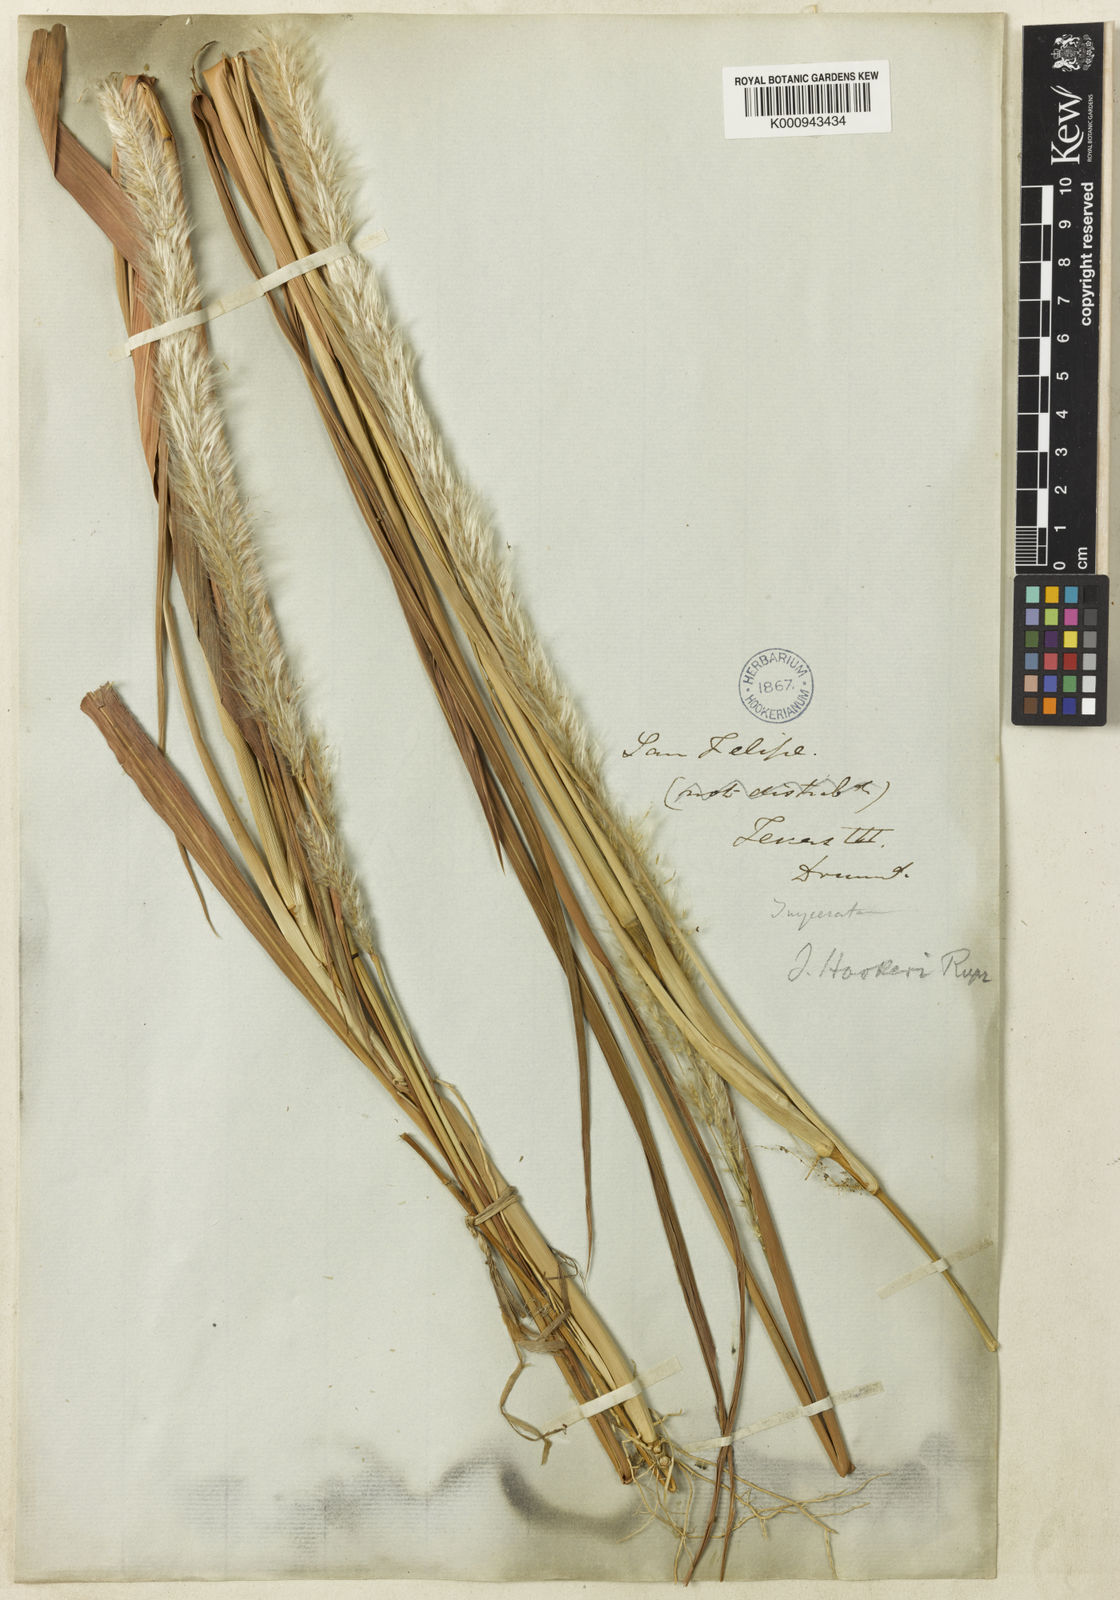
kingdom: Plantae
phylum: Tracheophyta
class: Liliopsida
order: Poales
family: Poaceae
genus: Imperata
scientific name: Imperata brevifolia
